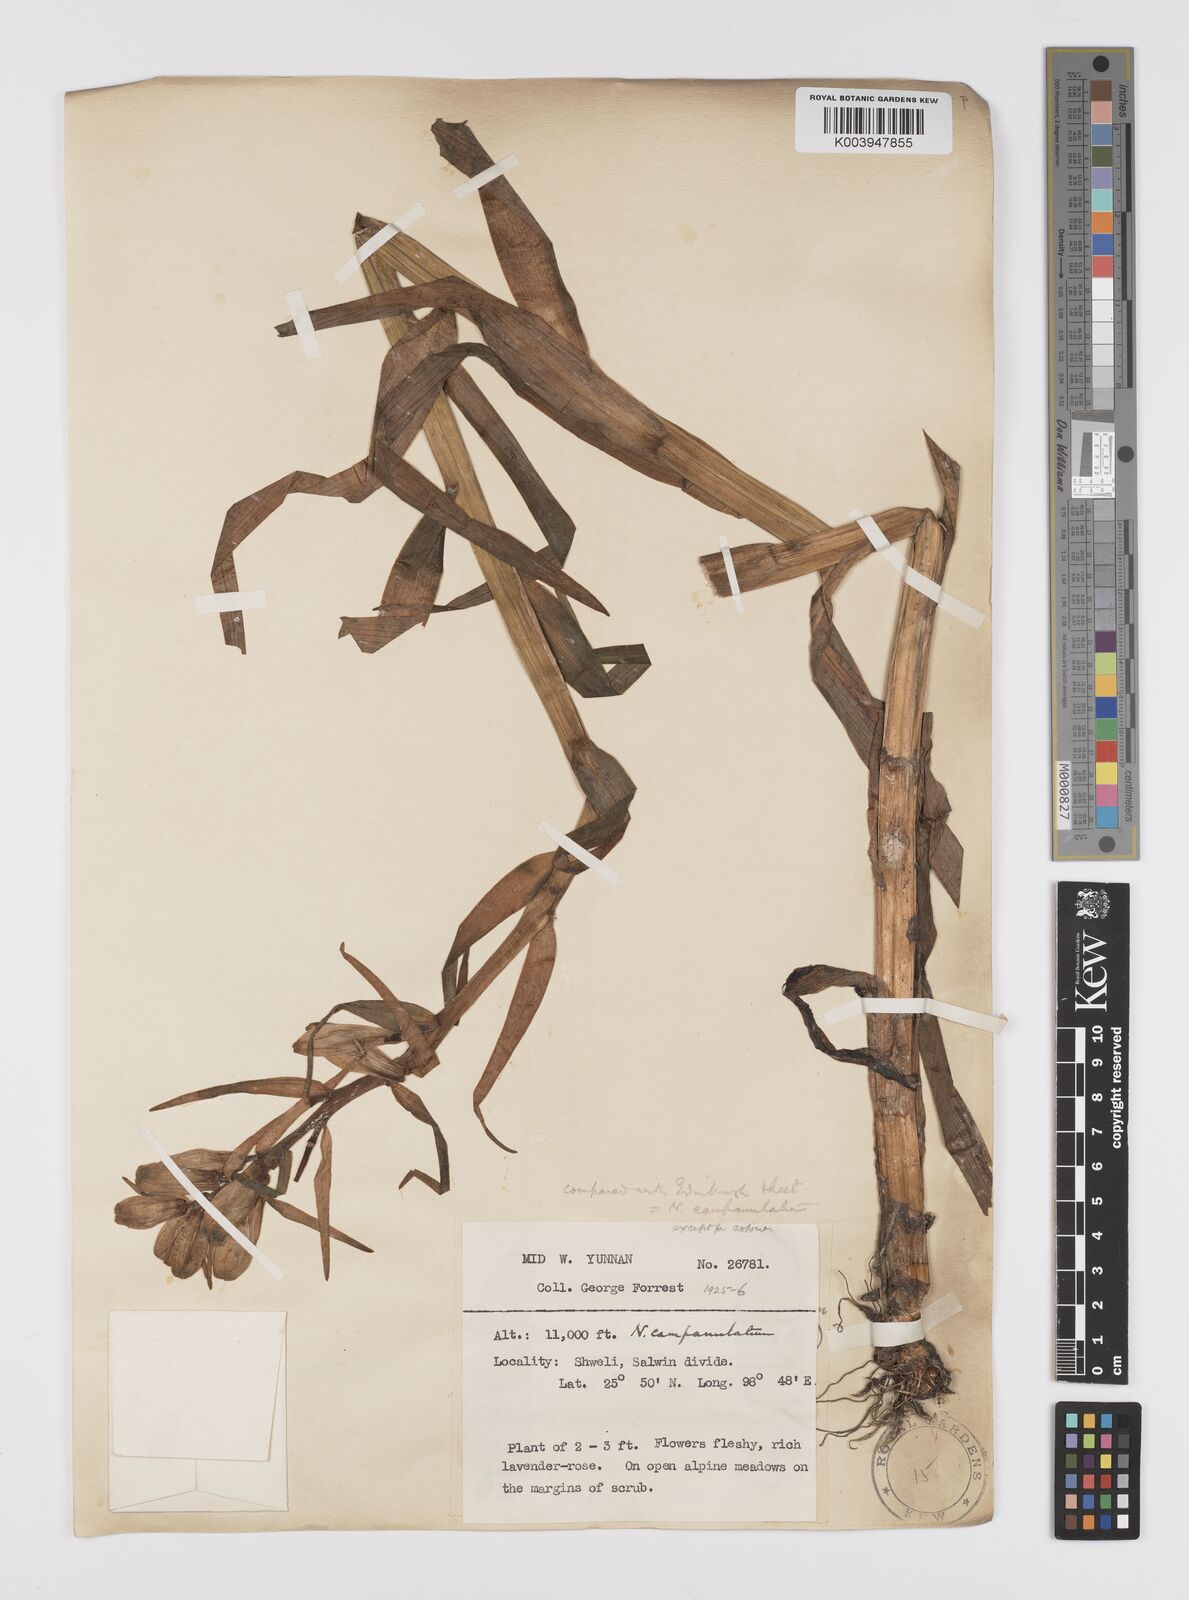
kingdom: Plantae
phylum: Tracheophyta
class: Liliopsida
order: Liliales
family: Liliaceae
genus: Notholirion
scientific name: Notholirion bulbuliferum
